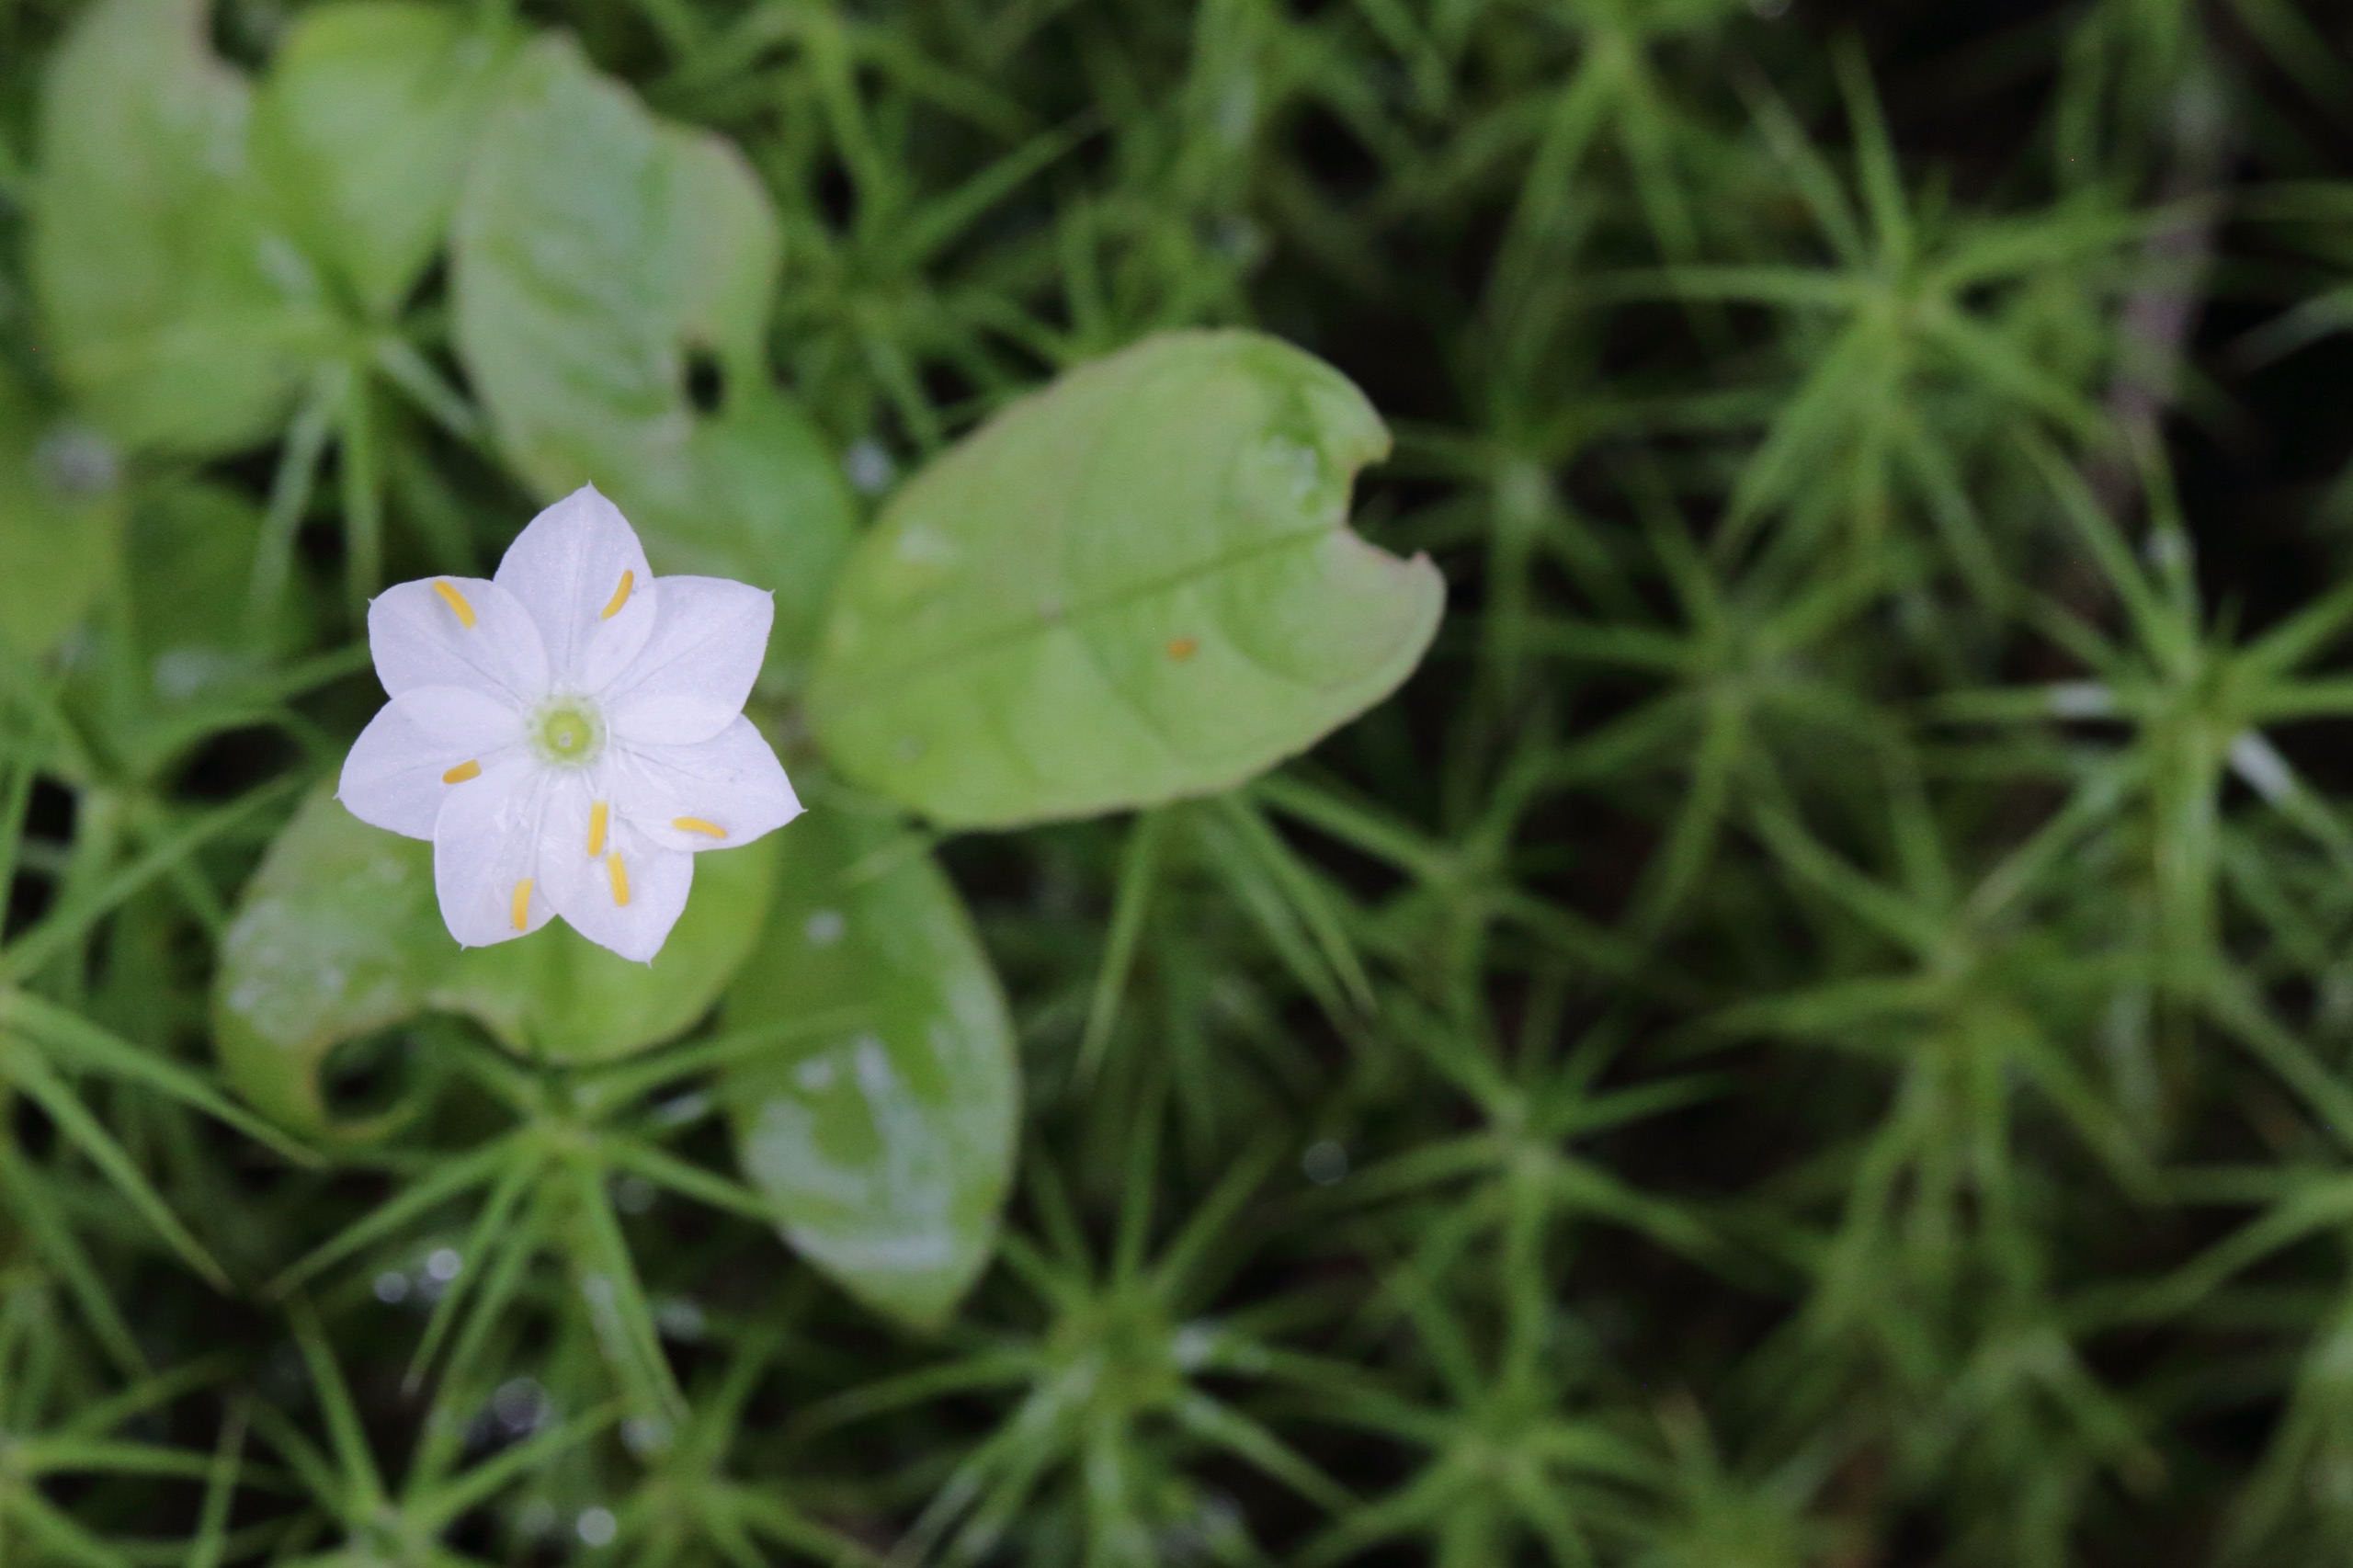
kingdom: Plantae
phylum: Tracheophyta
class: Magnoliopsida
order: Ericales
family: Primulaceae
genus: Lysimachia
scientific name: Lysimachia europaea
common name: Skovstjerne
